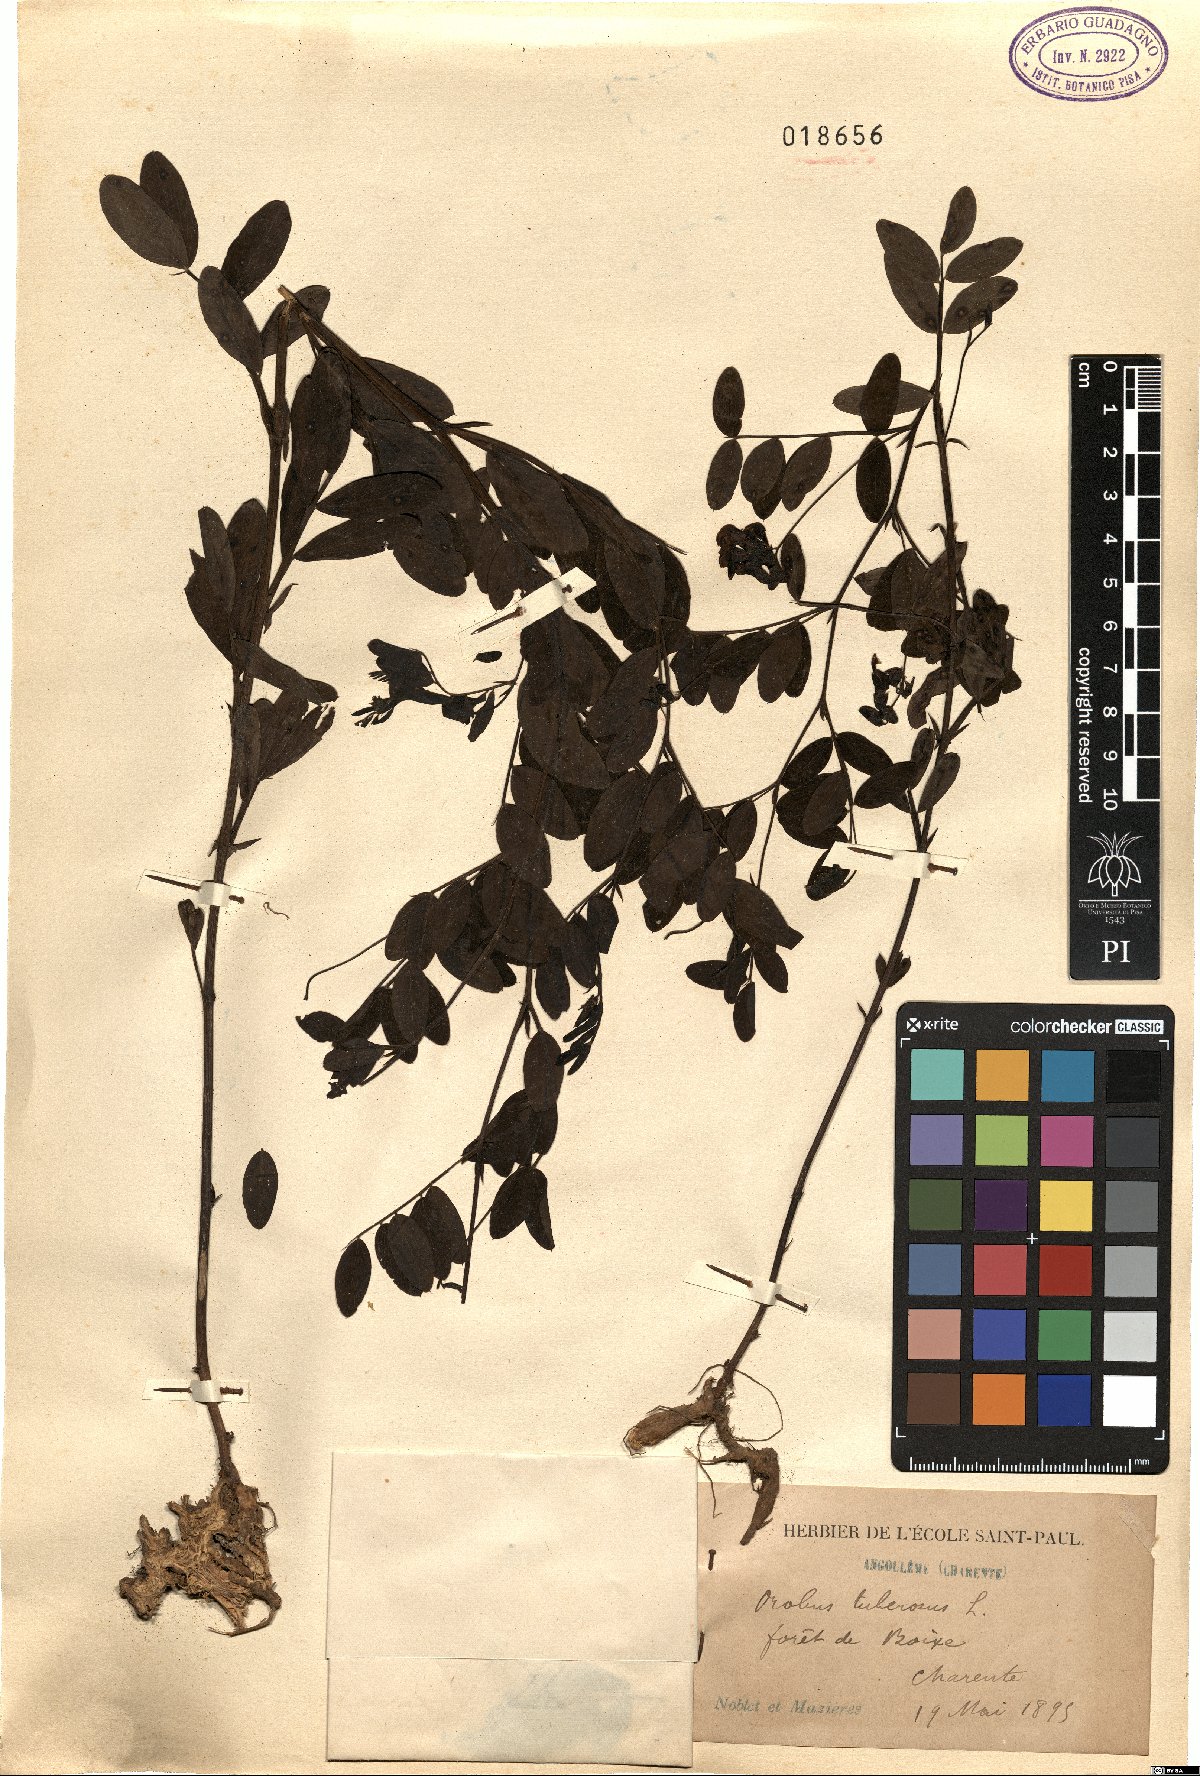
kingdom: Plantae
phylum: Tracheophyta
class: Magnoliopsida
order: Fabales
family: Fabaceae
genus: Lathyrus
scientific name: Lathyrus linifolius
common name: Bitter-vetch
